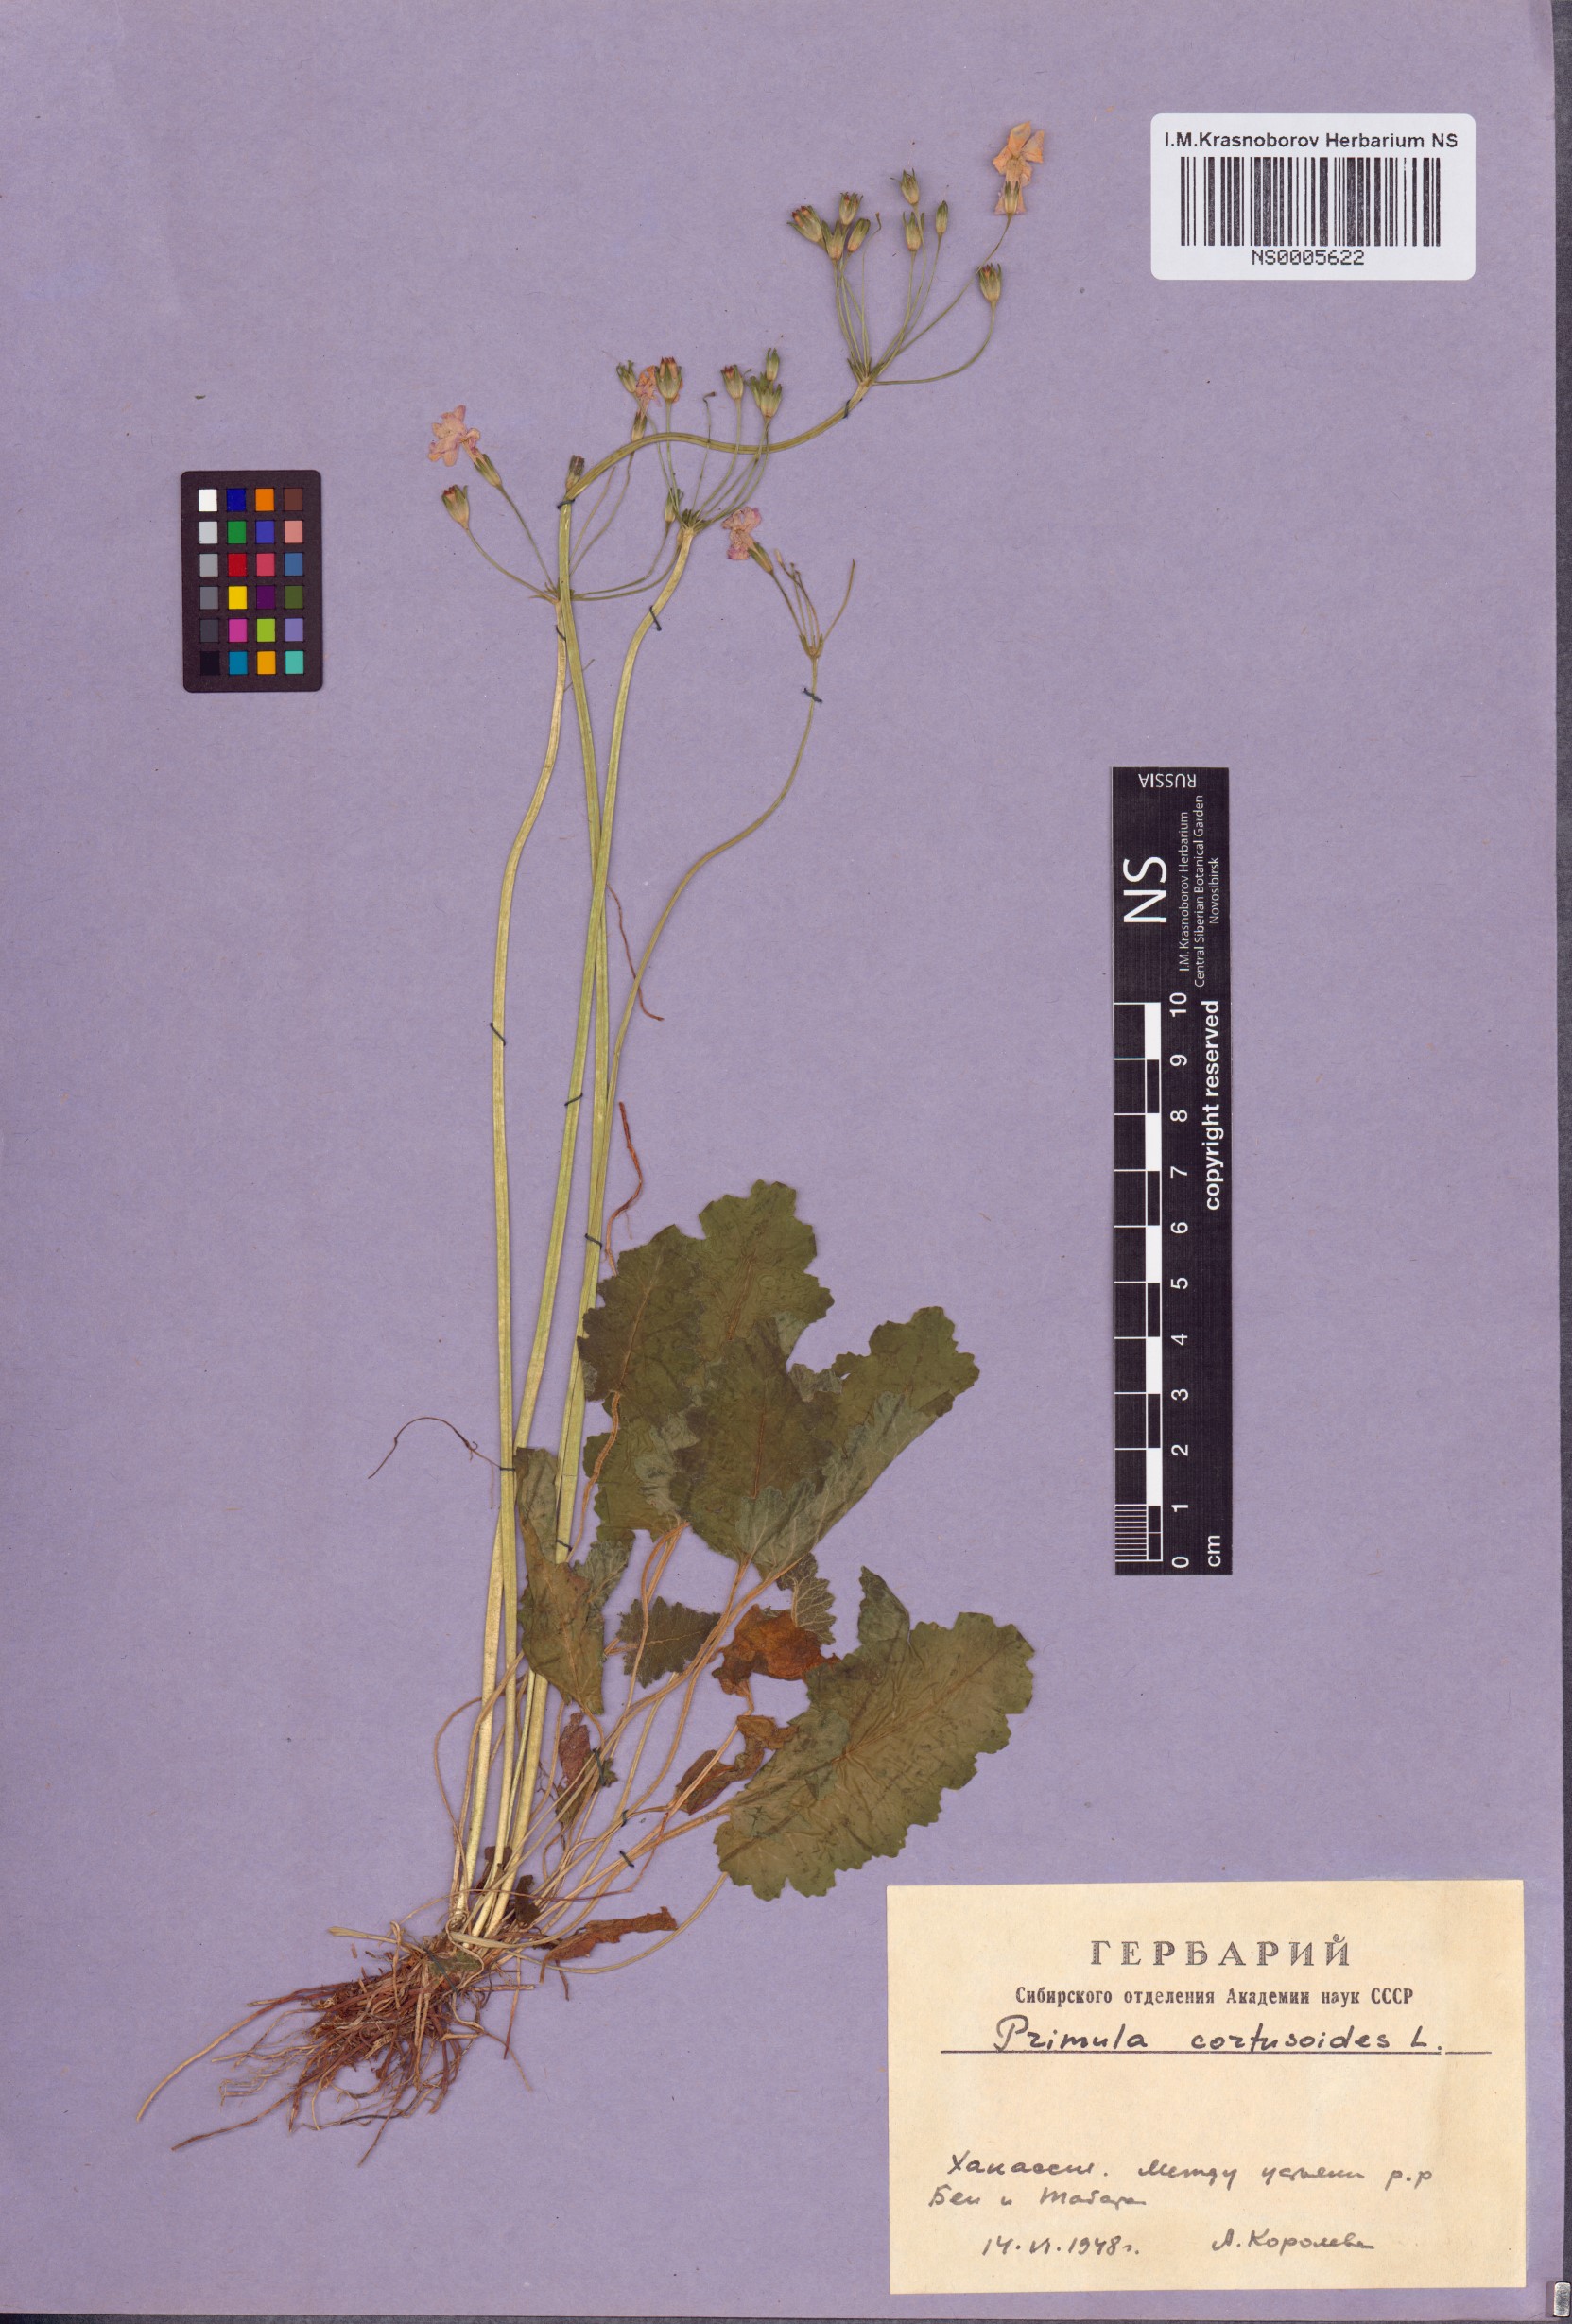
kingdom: Plantae
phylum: Tracheophyta
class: Magnoliopsida
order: Ericales
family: Primulaceae
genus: Primula
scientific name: Primula cortusoides
